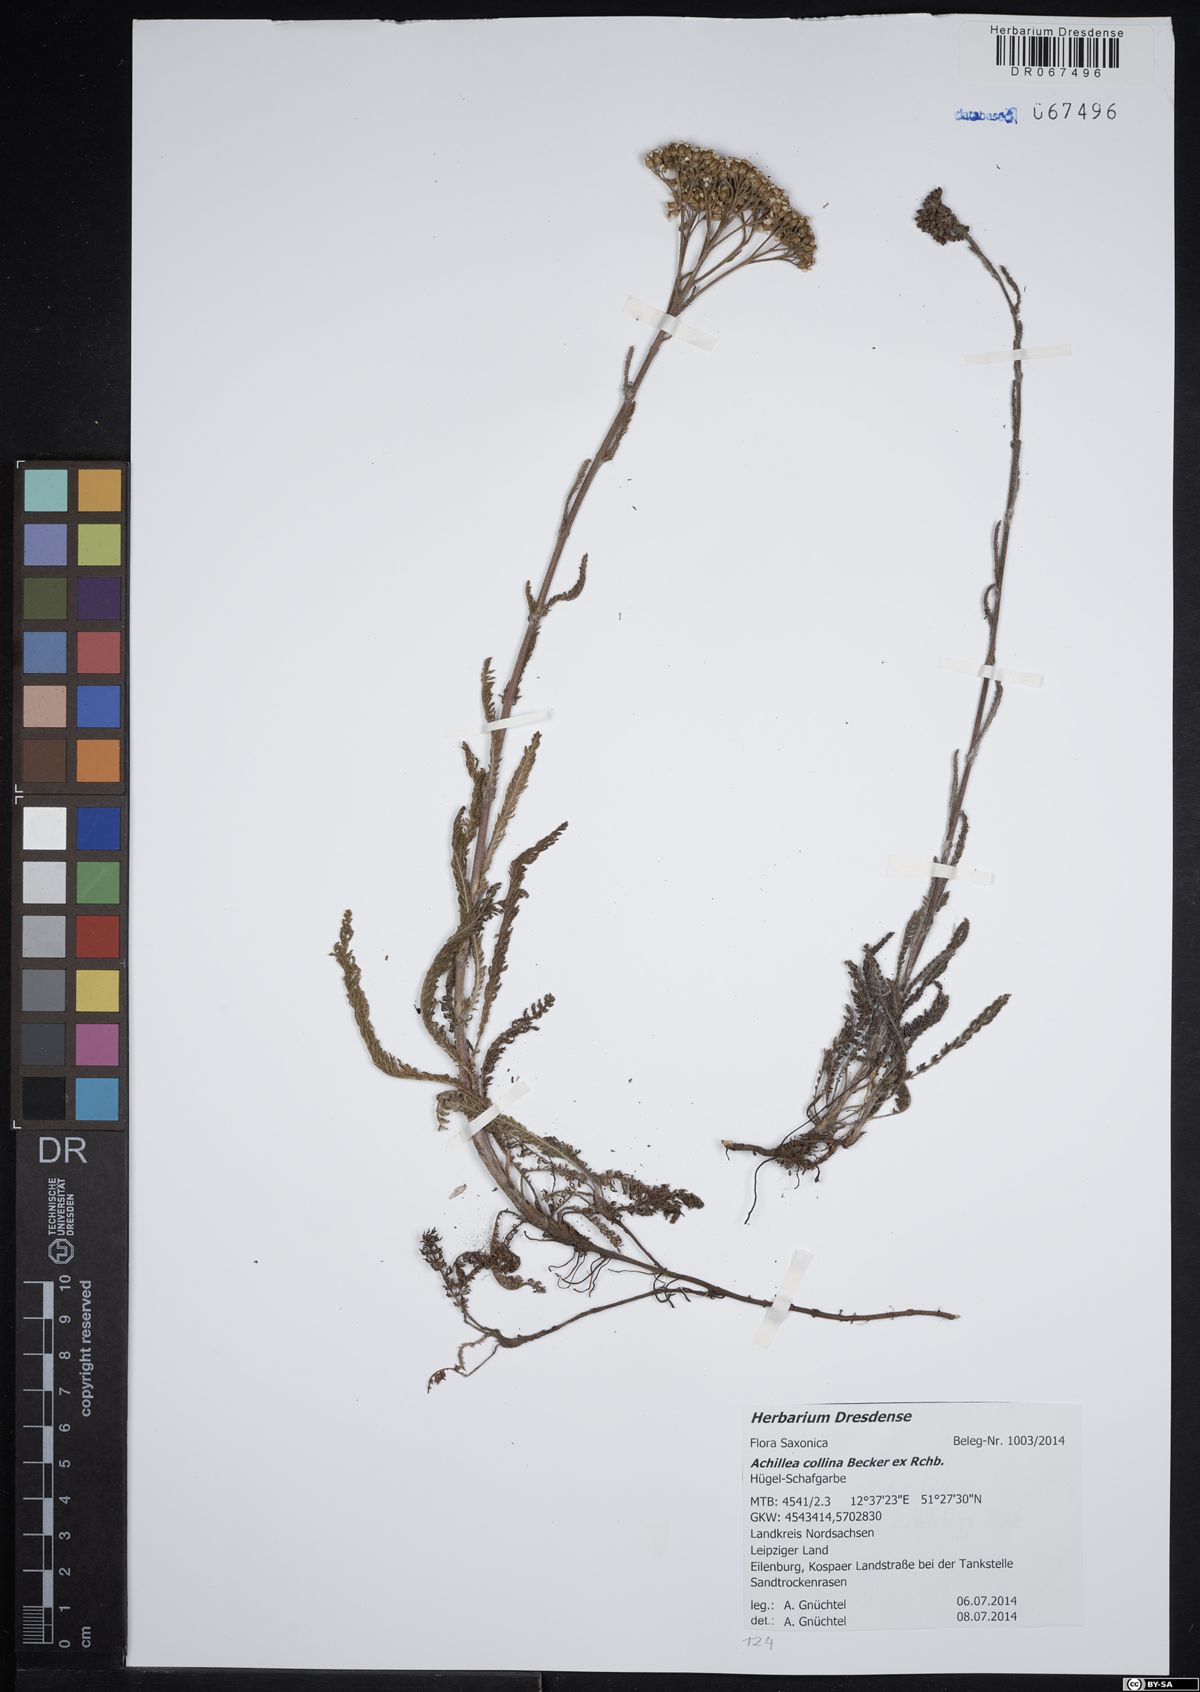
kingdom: Plantae
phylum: Tracheophyta
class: Magnoliopsida
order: Asterales
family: Asteraceae
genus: Achillea
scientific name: Achillea collina
